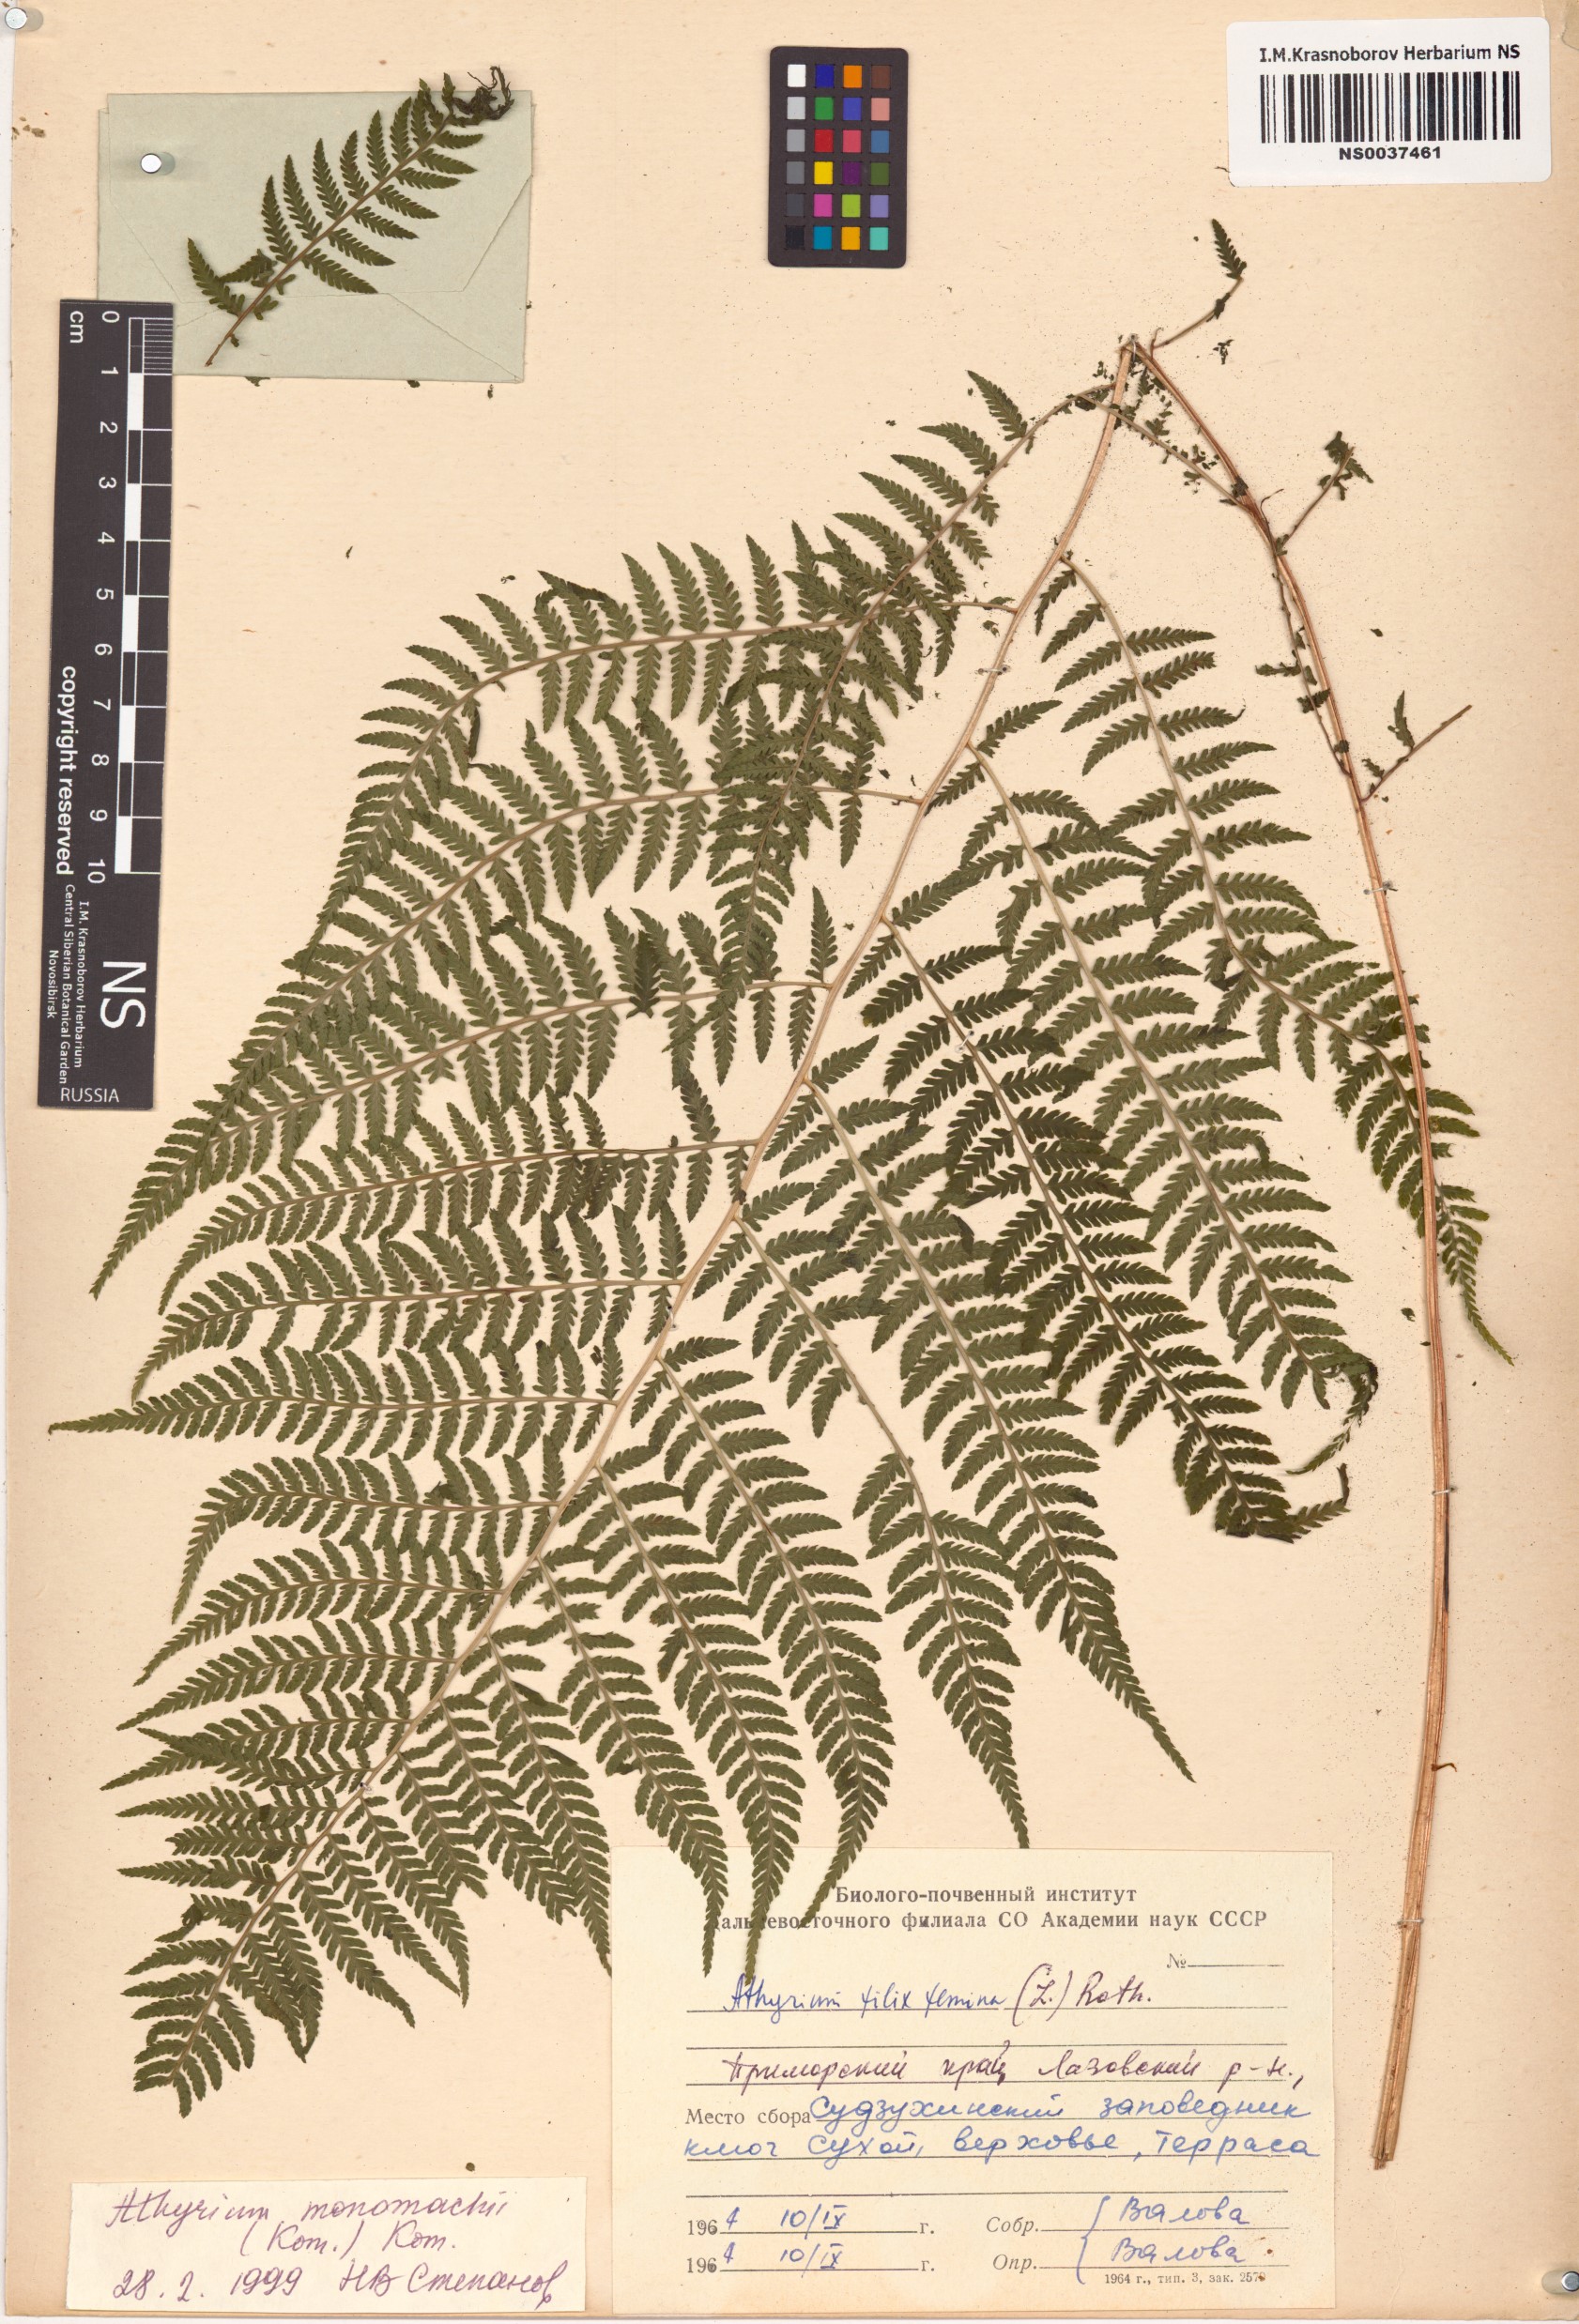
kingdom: Plantae
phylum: Tracheophyta
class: Polypodiopsida
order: Polypodiales
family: Athyriaceae
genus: Athyrium
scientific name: Athyrium monomachii
